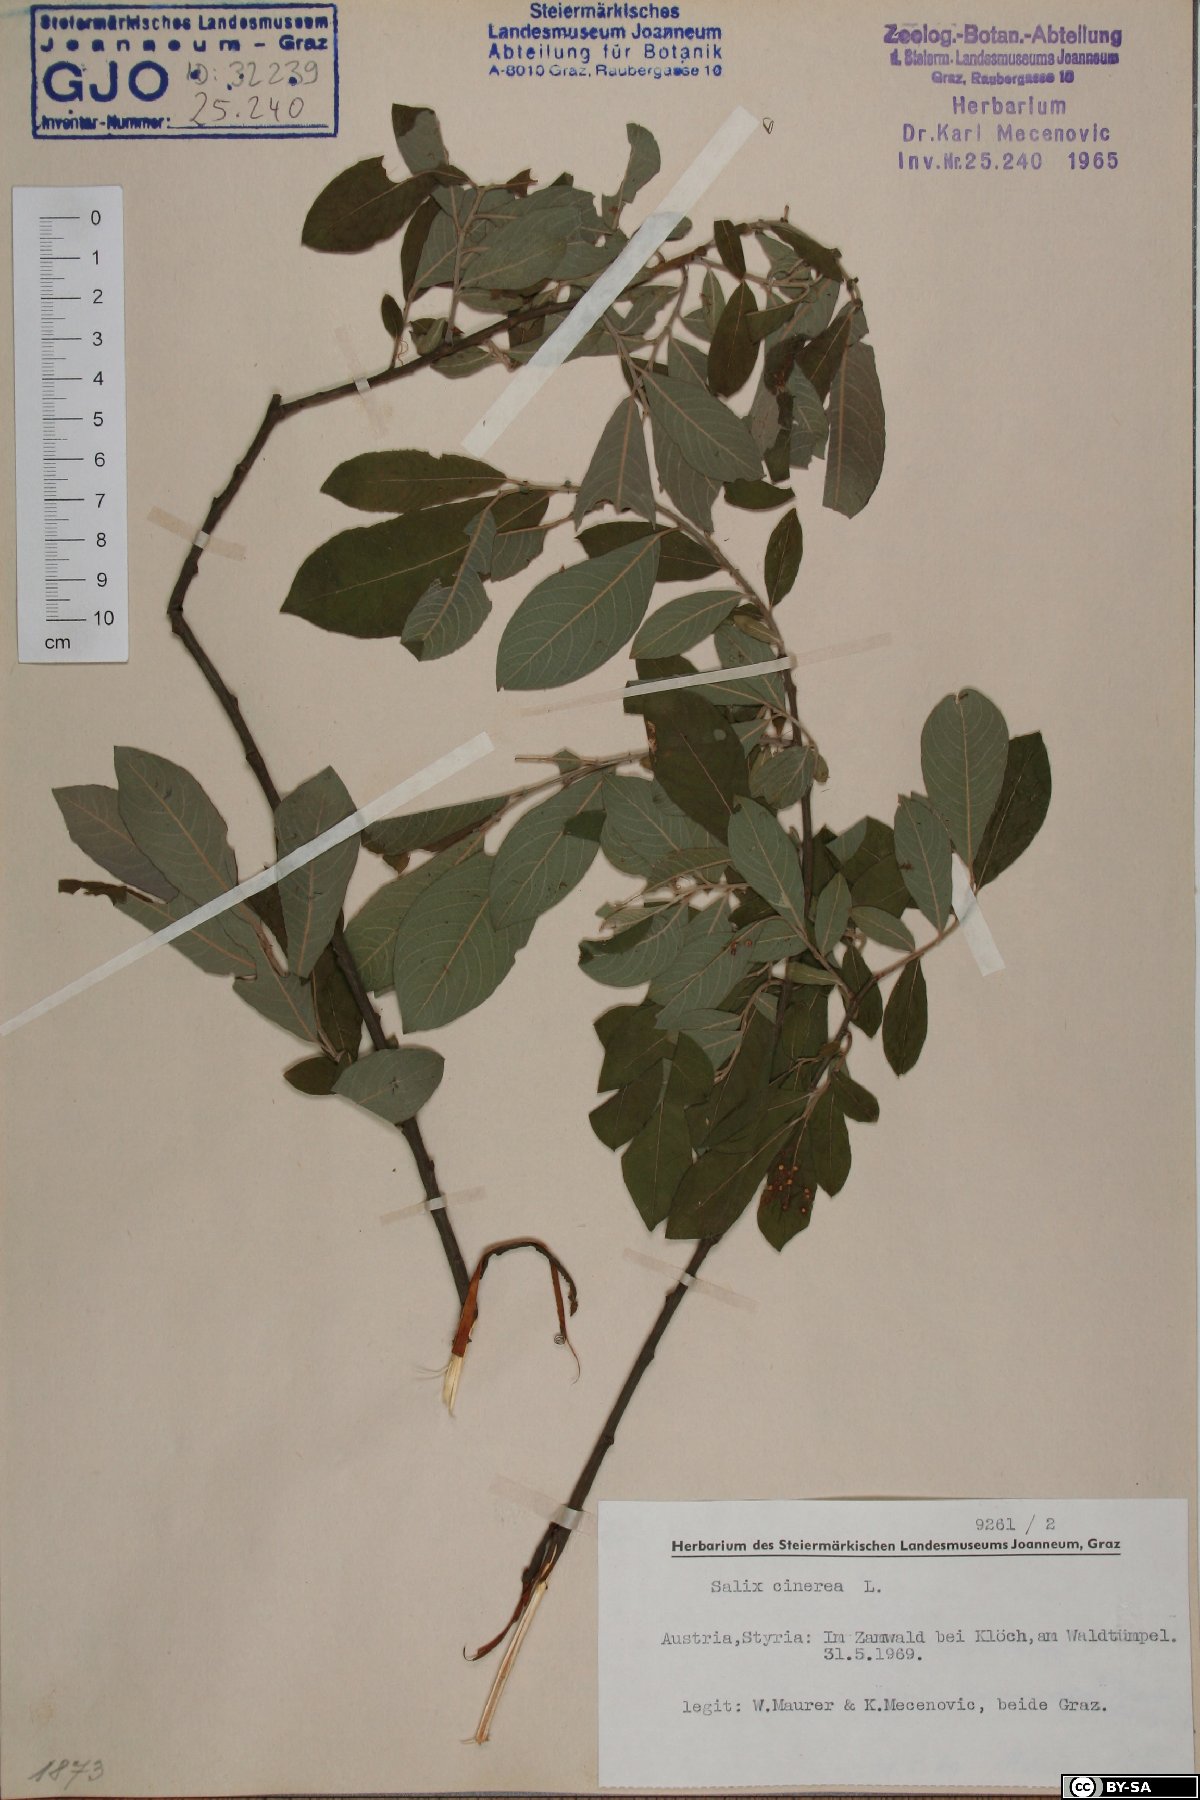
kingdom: Plantae
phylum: Tracheophyta
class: Magnoliopsida
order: Malpighiales
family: Salicaceae
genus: Salix
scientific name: Salix cinerea
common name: Common sallow
